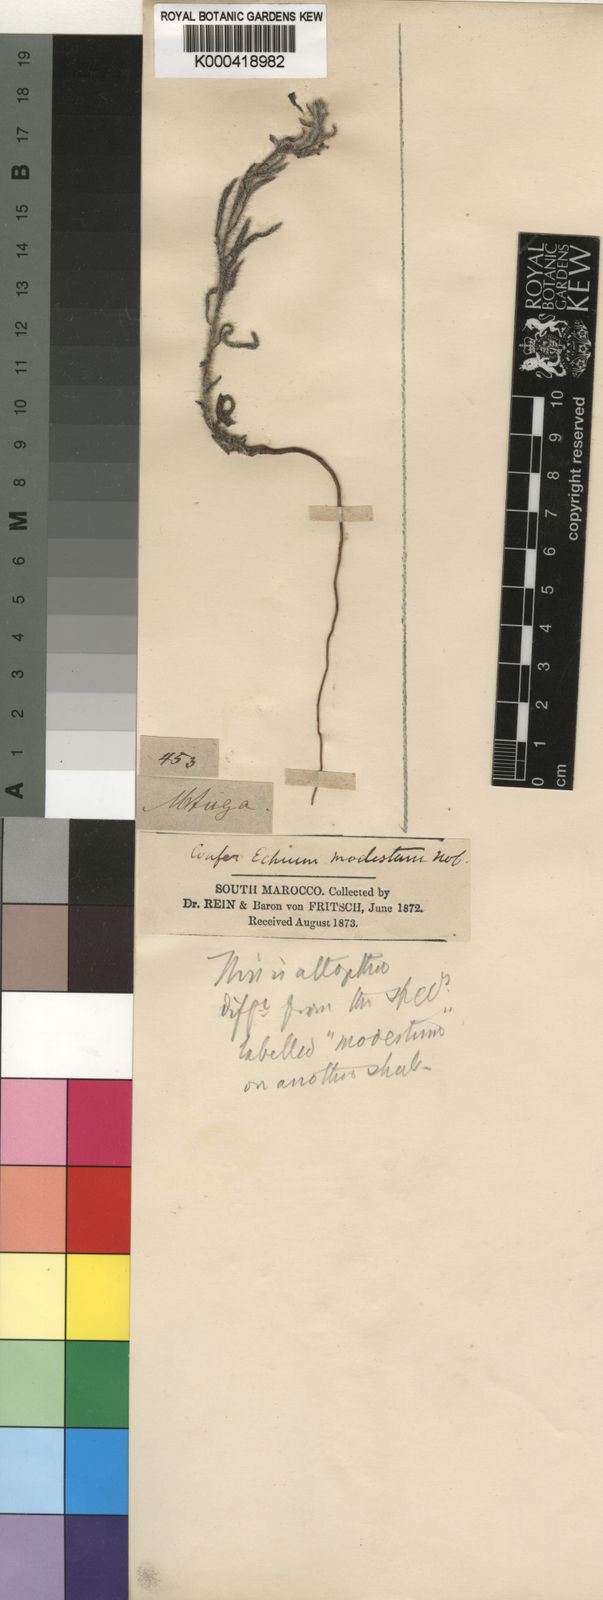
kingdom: Plantae
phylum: Tracheophyta
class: Magnoliopsida
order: Boraginales
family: Boraginaceae
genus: Echium
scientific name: Echium modestum
